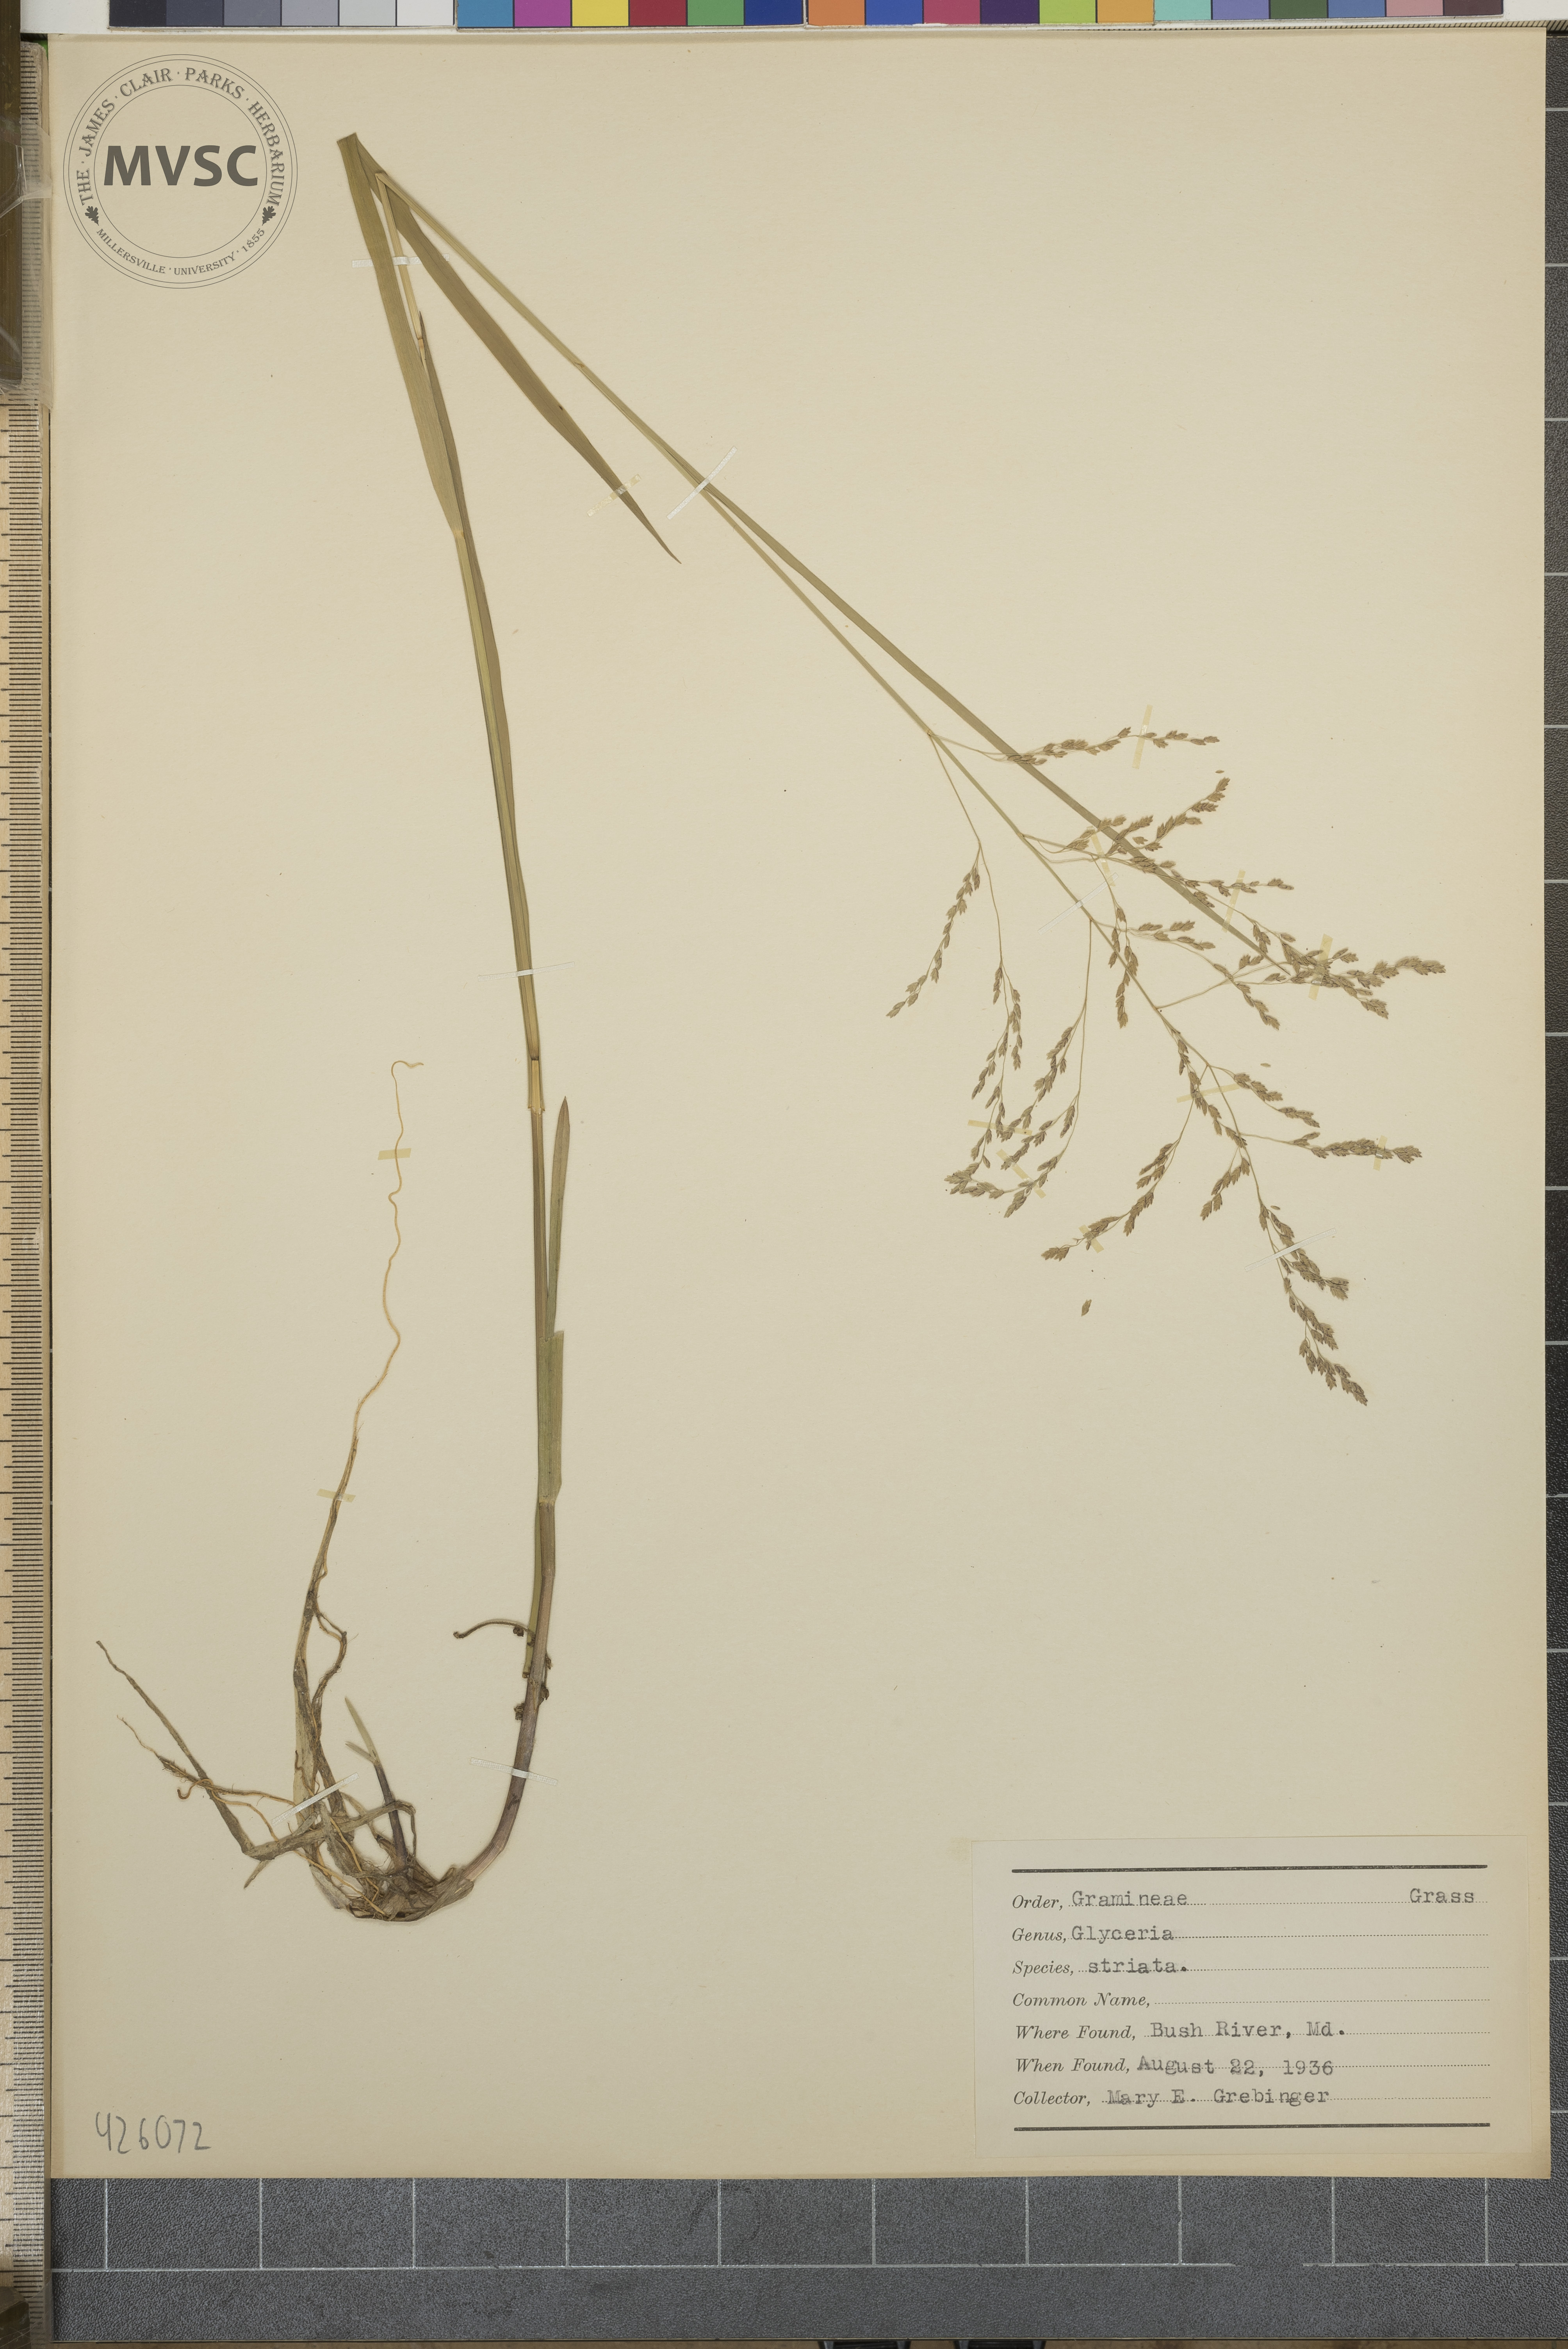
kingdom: Plantae
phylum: Tracheophyta
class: Liliopsida
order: Poales
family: Poaceae
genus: Glyceria
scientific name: Glyceria striata
